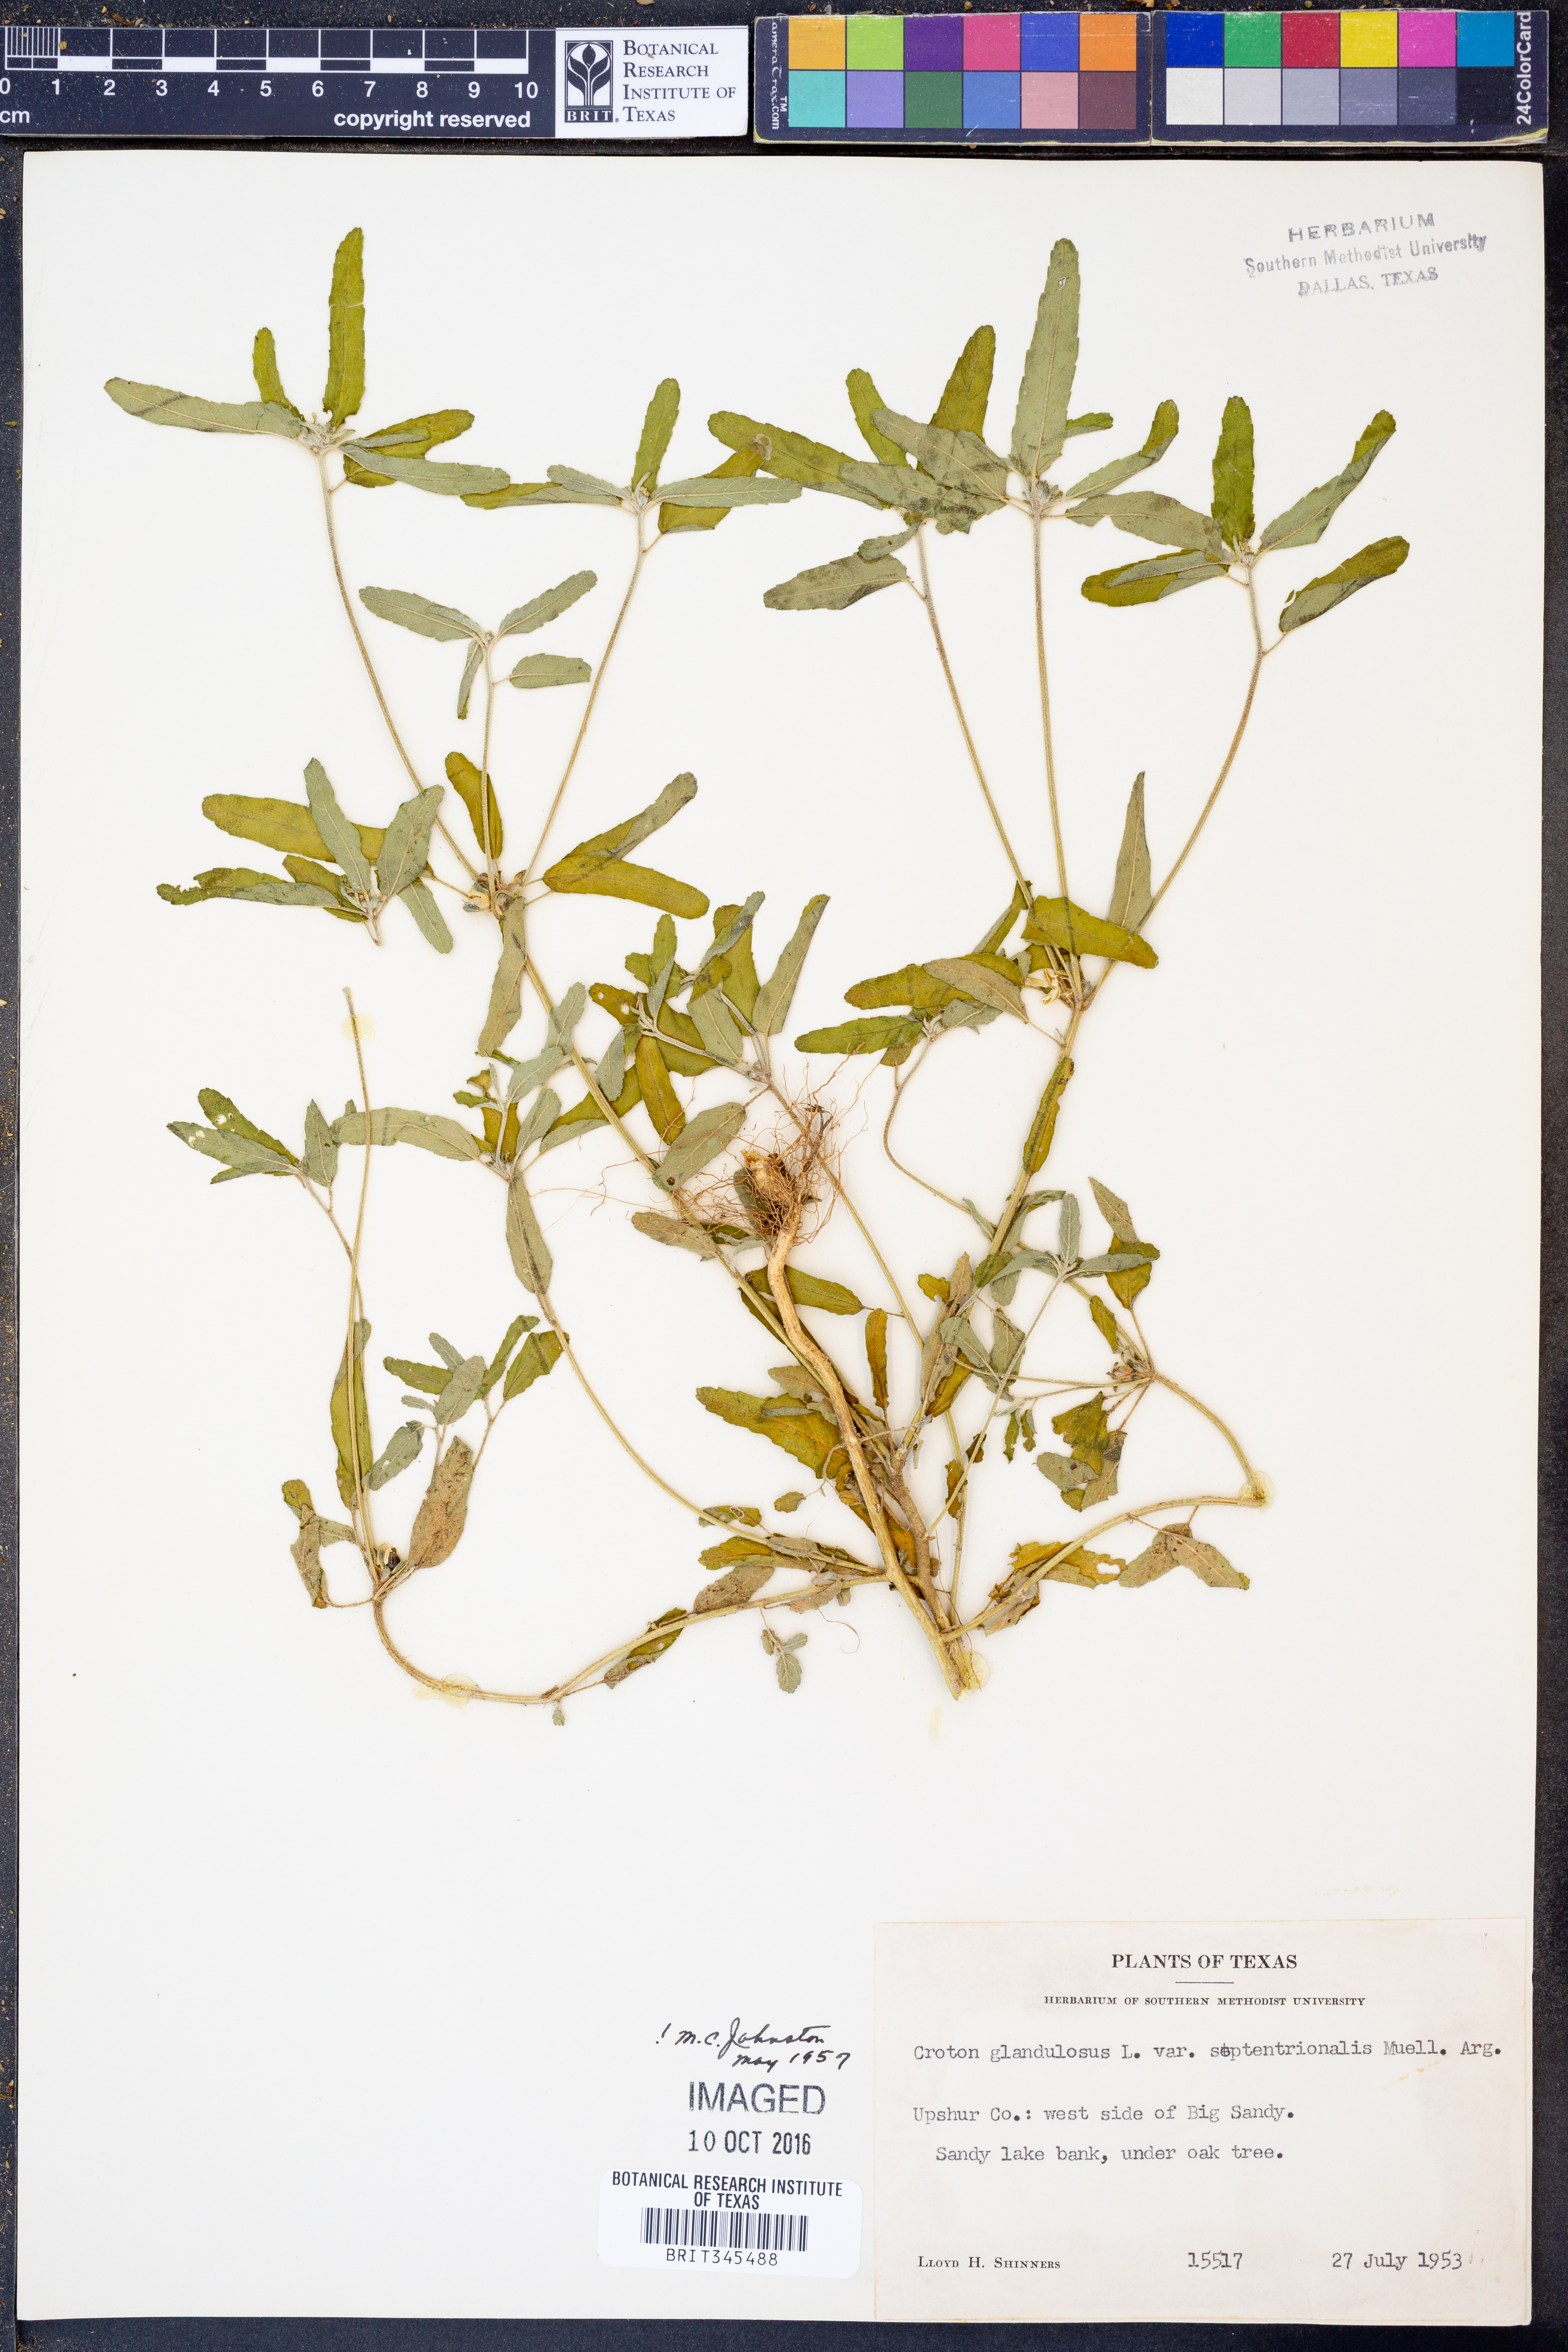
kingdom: Plantae
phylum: Tracheophyta
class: Magnoliopsida
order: Malpighiales
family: Euphorbiaceae
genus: Croton
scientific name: Croton glandulosus
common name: Tropic croton
